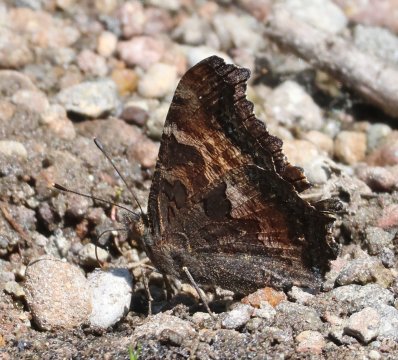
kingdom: Animalia
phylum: Arthropoda
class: Insecta
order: Lepidoptera
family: Nymphalidae
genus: Nymphalis
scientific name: Nymphalis californica
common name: California Tortoiseshell
